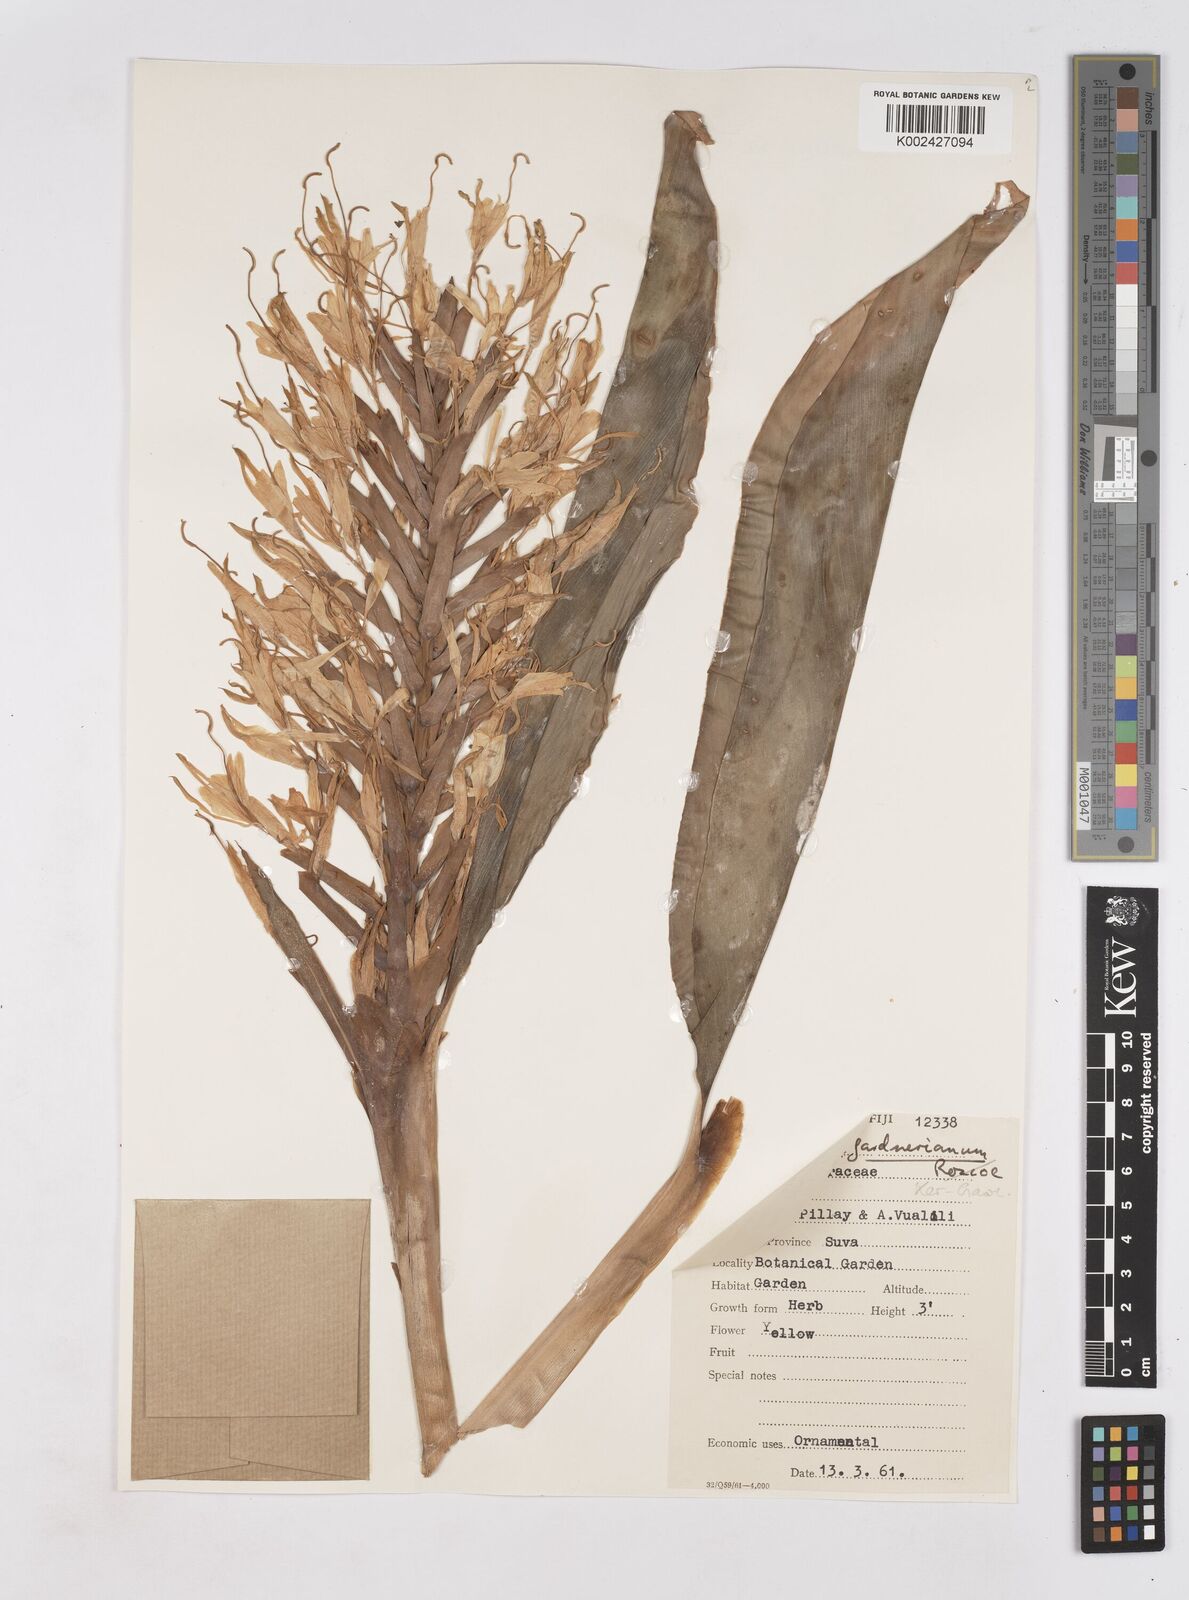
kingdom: Plantae
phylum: Tracheophyta
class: Liliopsida
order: Zingiberales
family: Zingiberaceae
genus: Hedychium
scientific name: Hedychium gardnerianum
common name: Himalayan ginger
